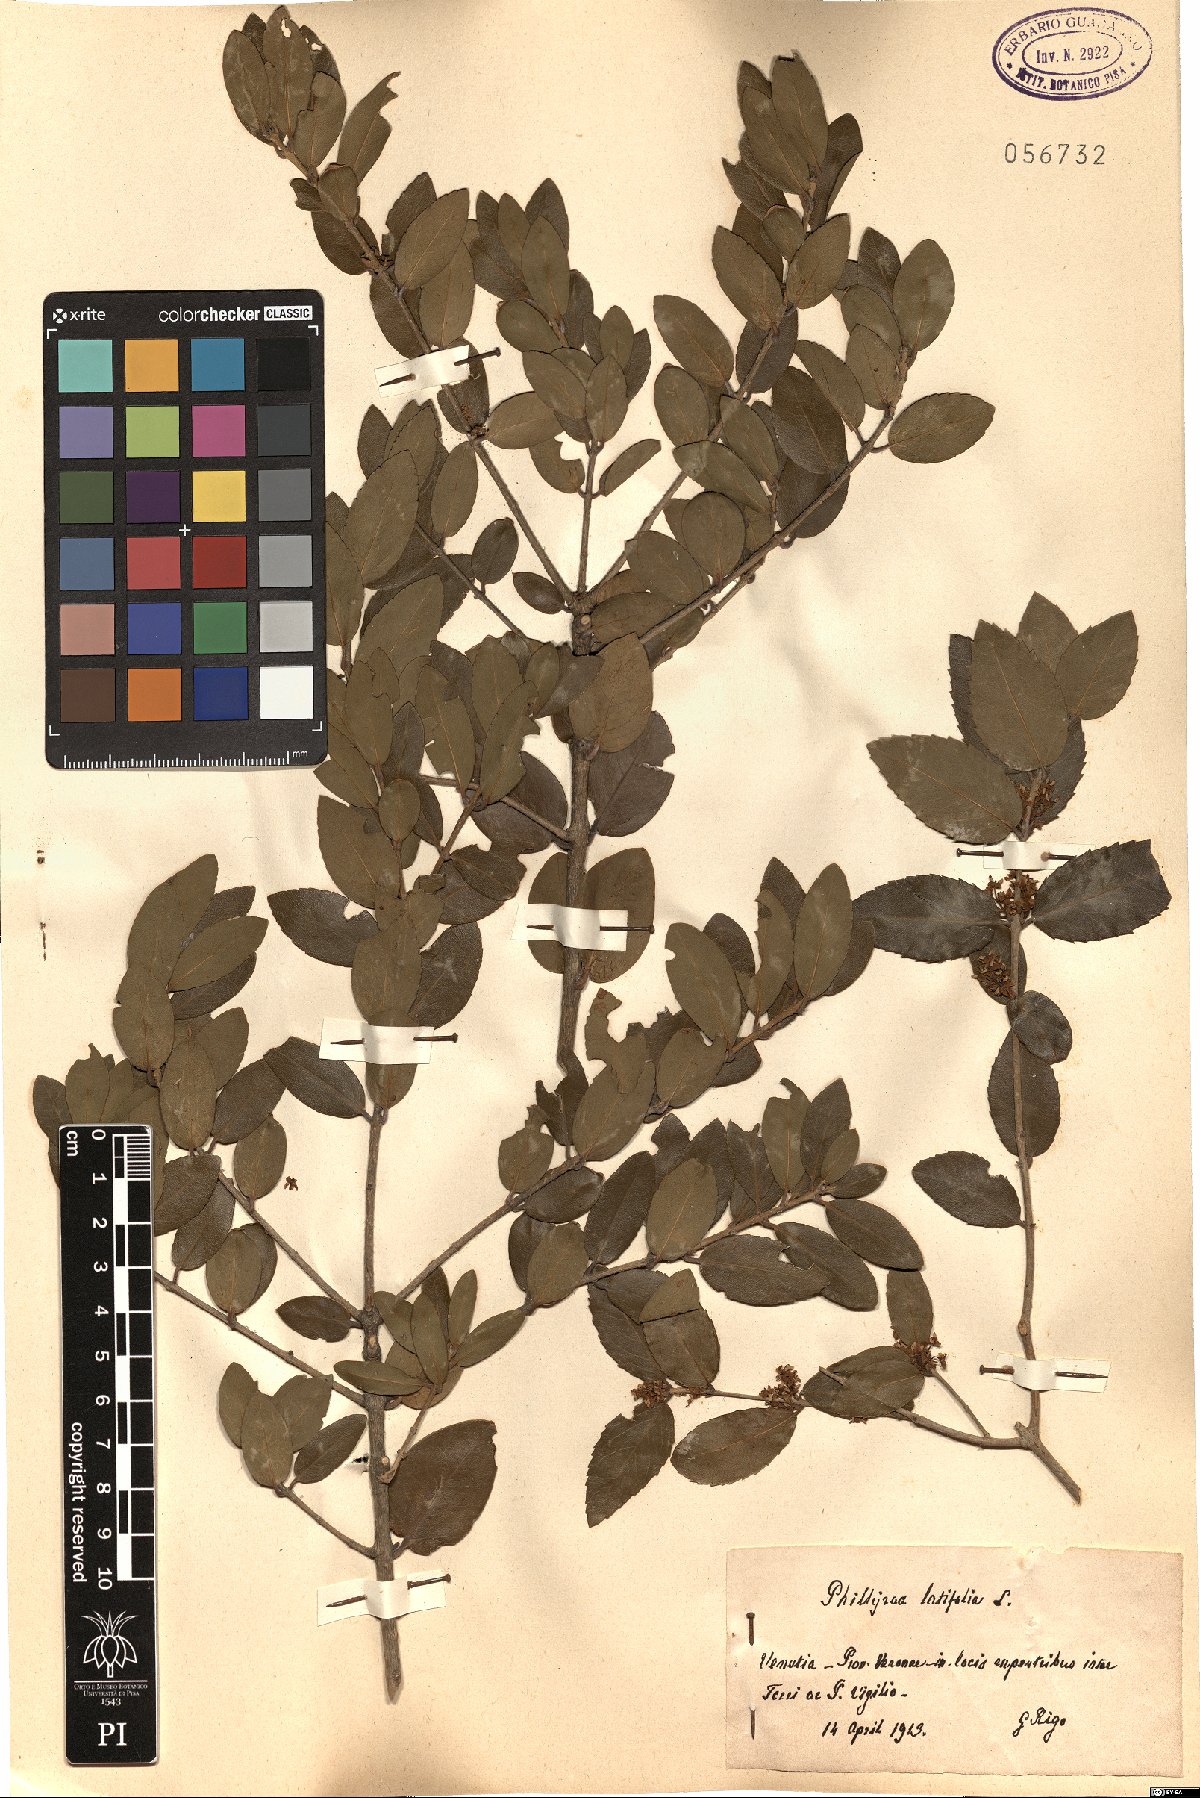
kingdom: Plantae
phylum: Tracheophyta
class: Magnoliopsida
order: Lamiales
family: Oleaceae
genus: Phillyrea
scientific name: Phillyrea latifolia
